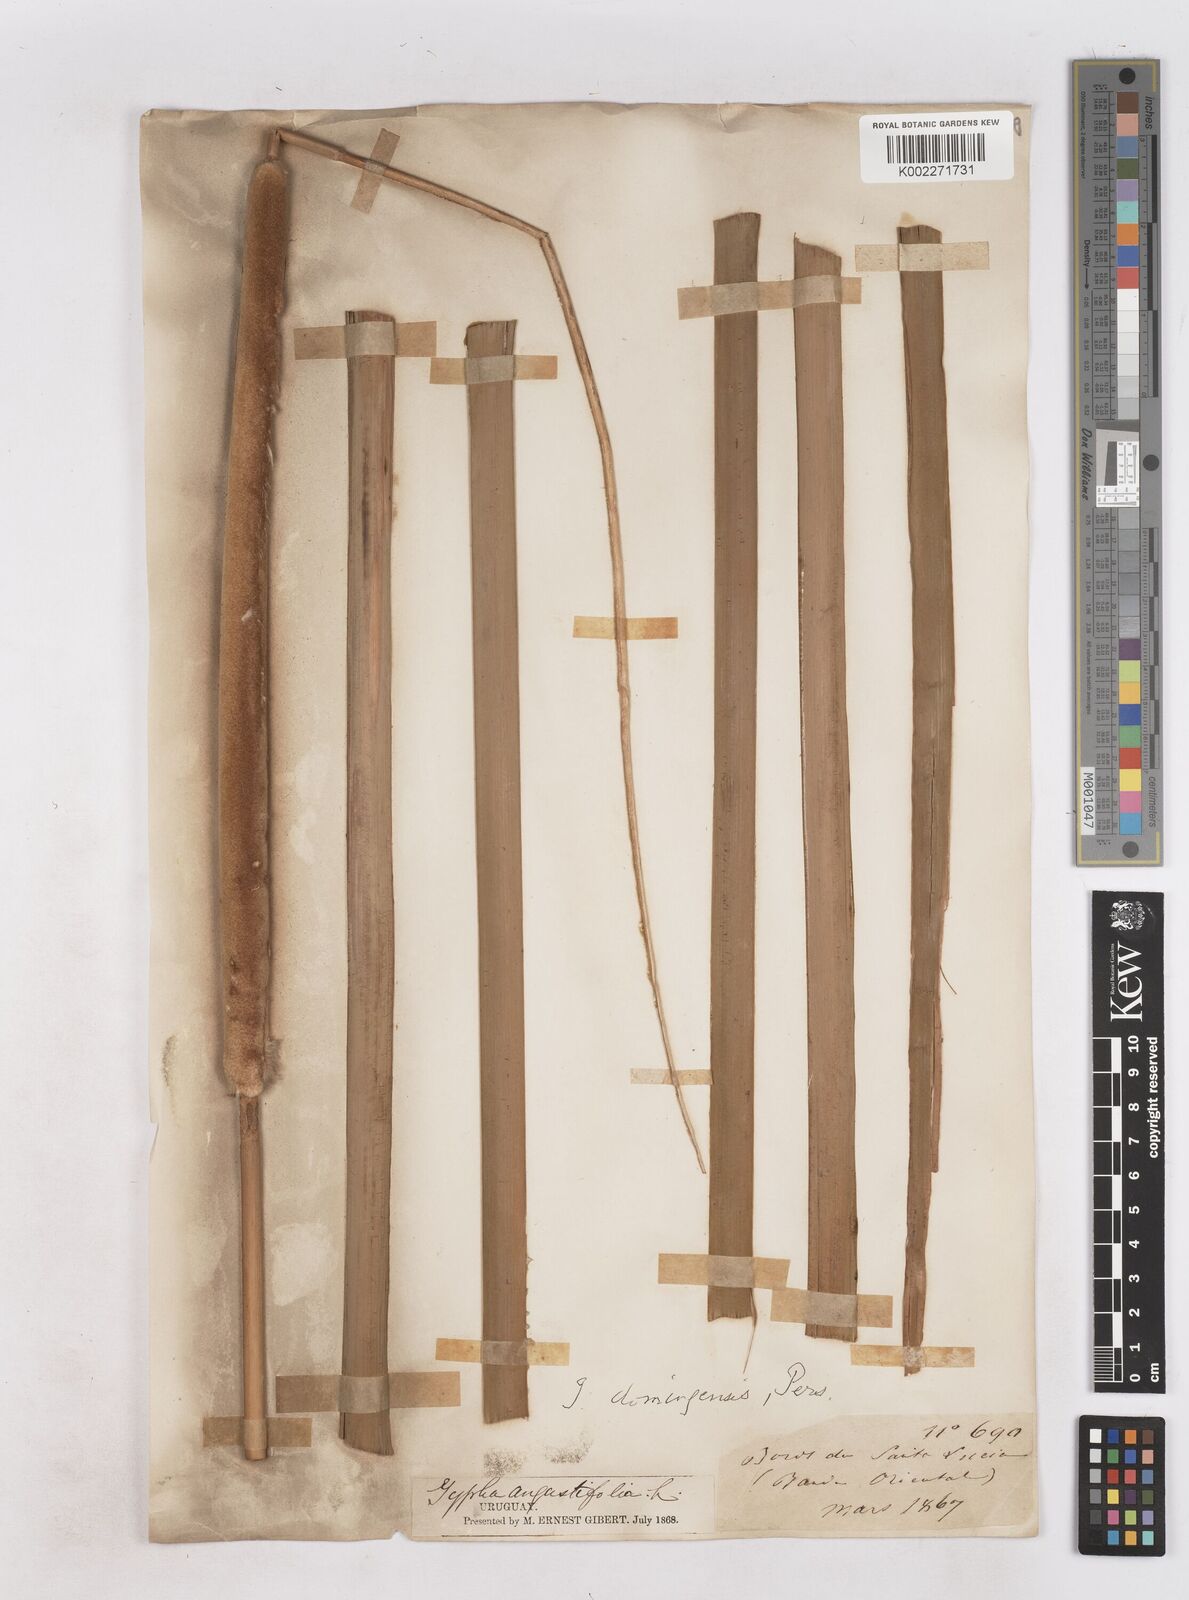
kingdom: Plantae
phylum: Tracheophyta
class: Liliopsida
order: Poales
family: Typhaceae
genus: Typha
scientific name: Typha domingensis
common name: Southern cattail
